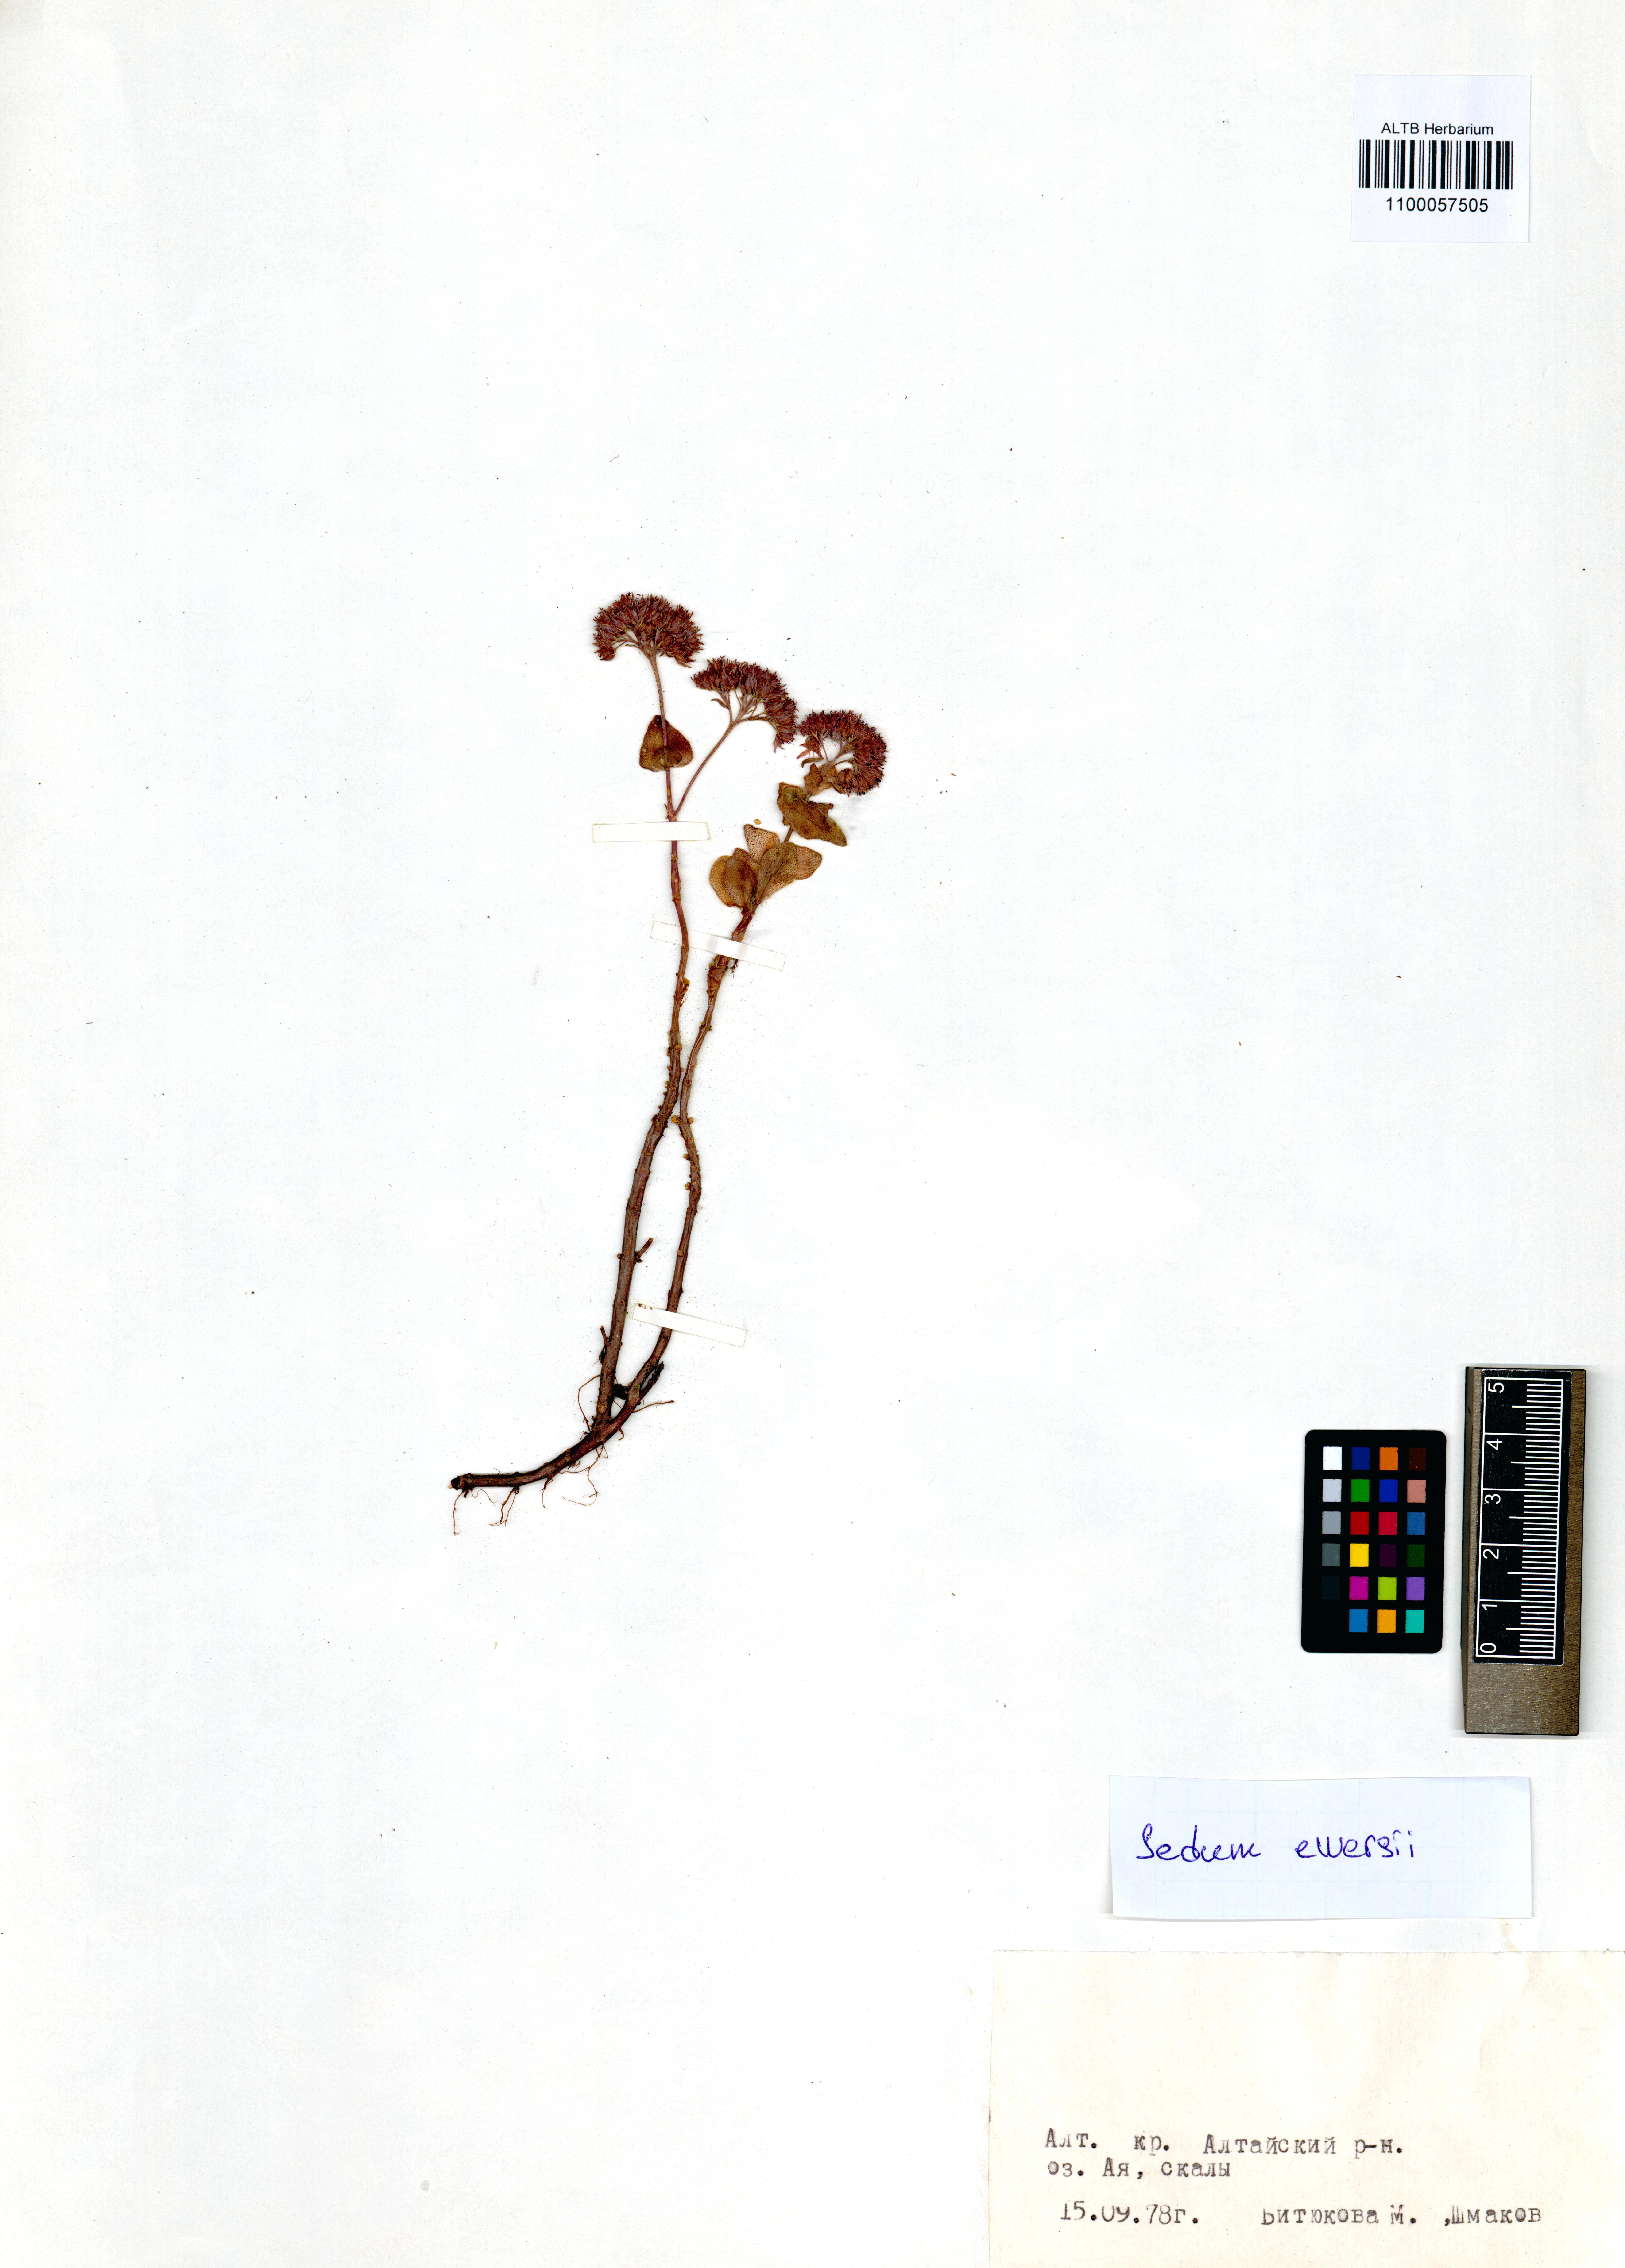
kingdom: Plantae
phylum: Tracheophyta
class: Magnoliopsida
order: Saxifragales
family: Crassulaceae
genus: Hylotelephium
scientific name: Hylotelephium ewersii
